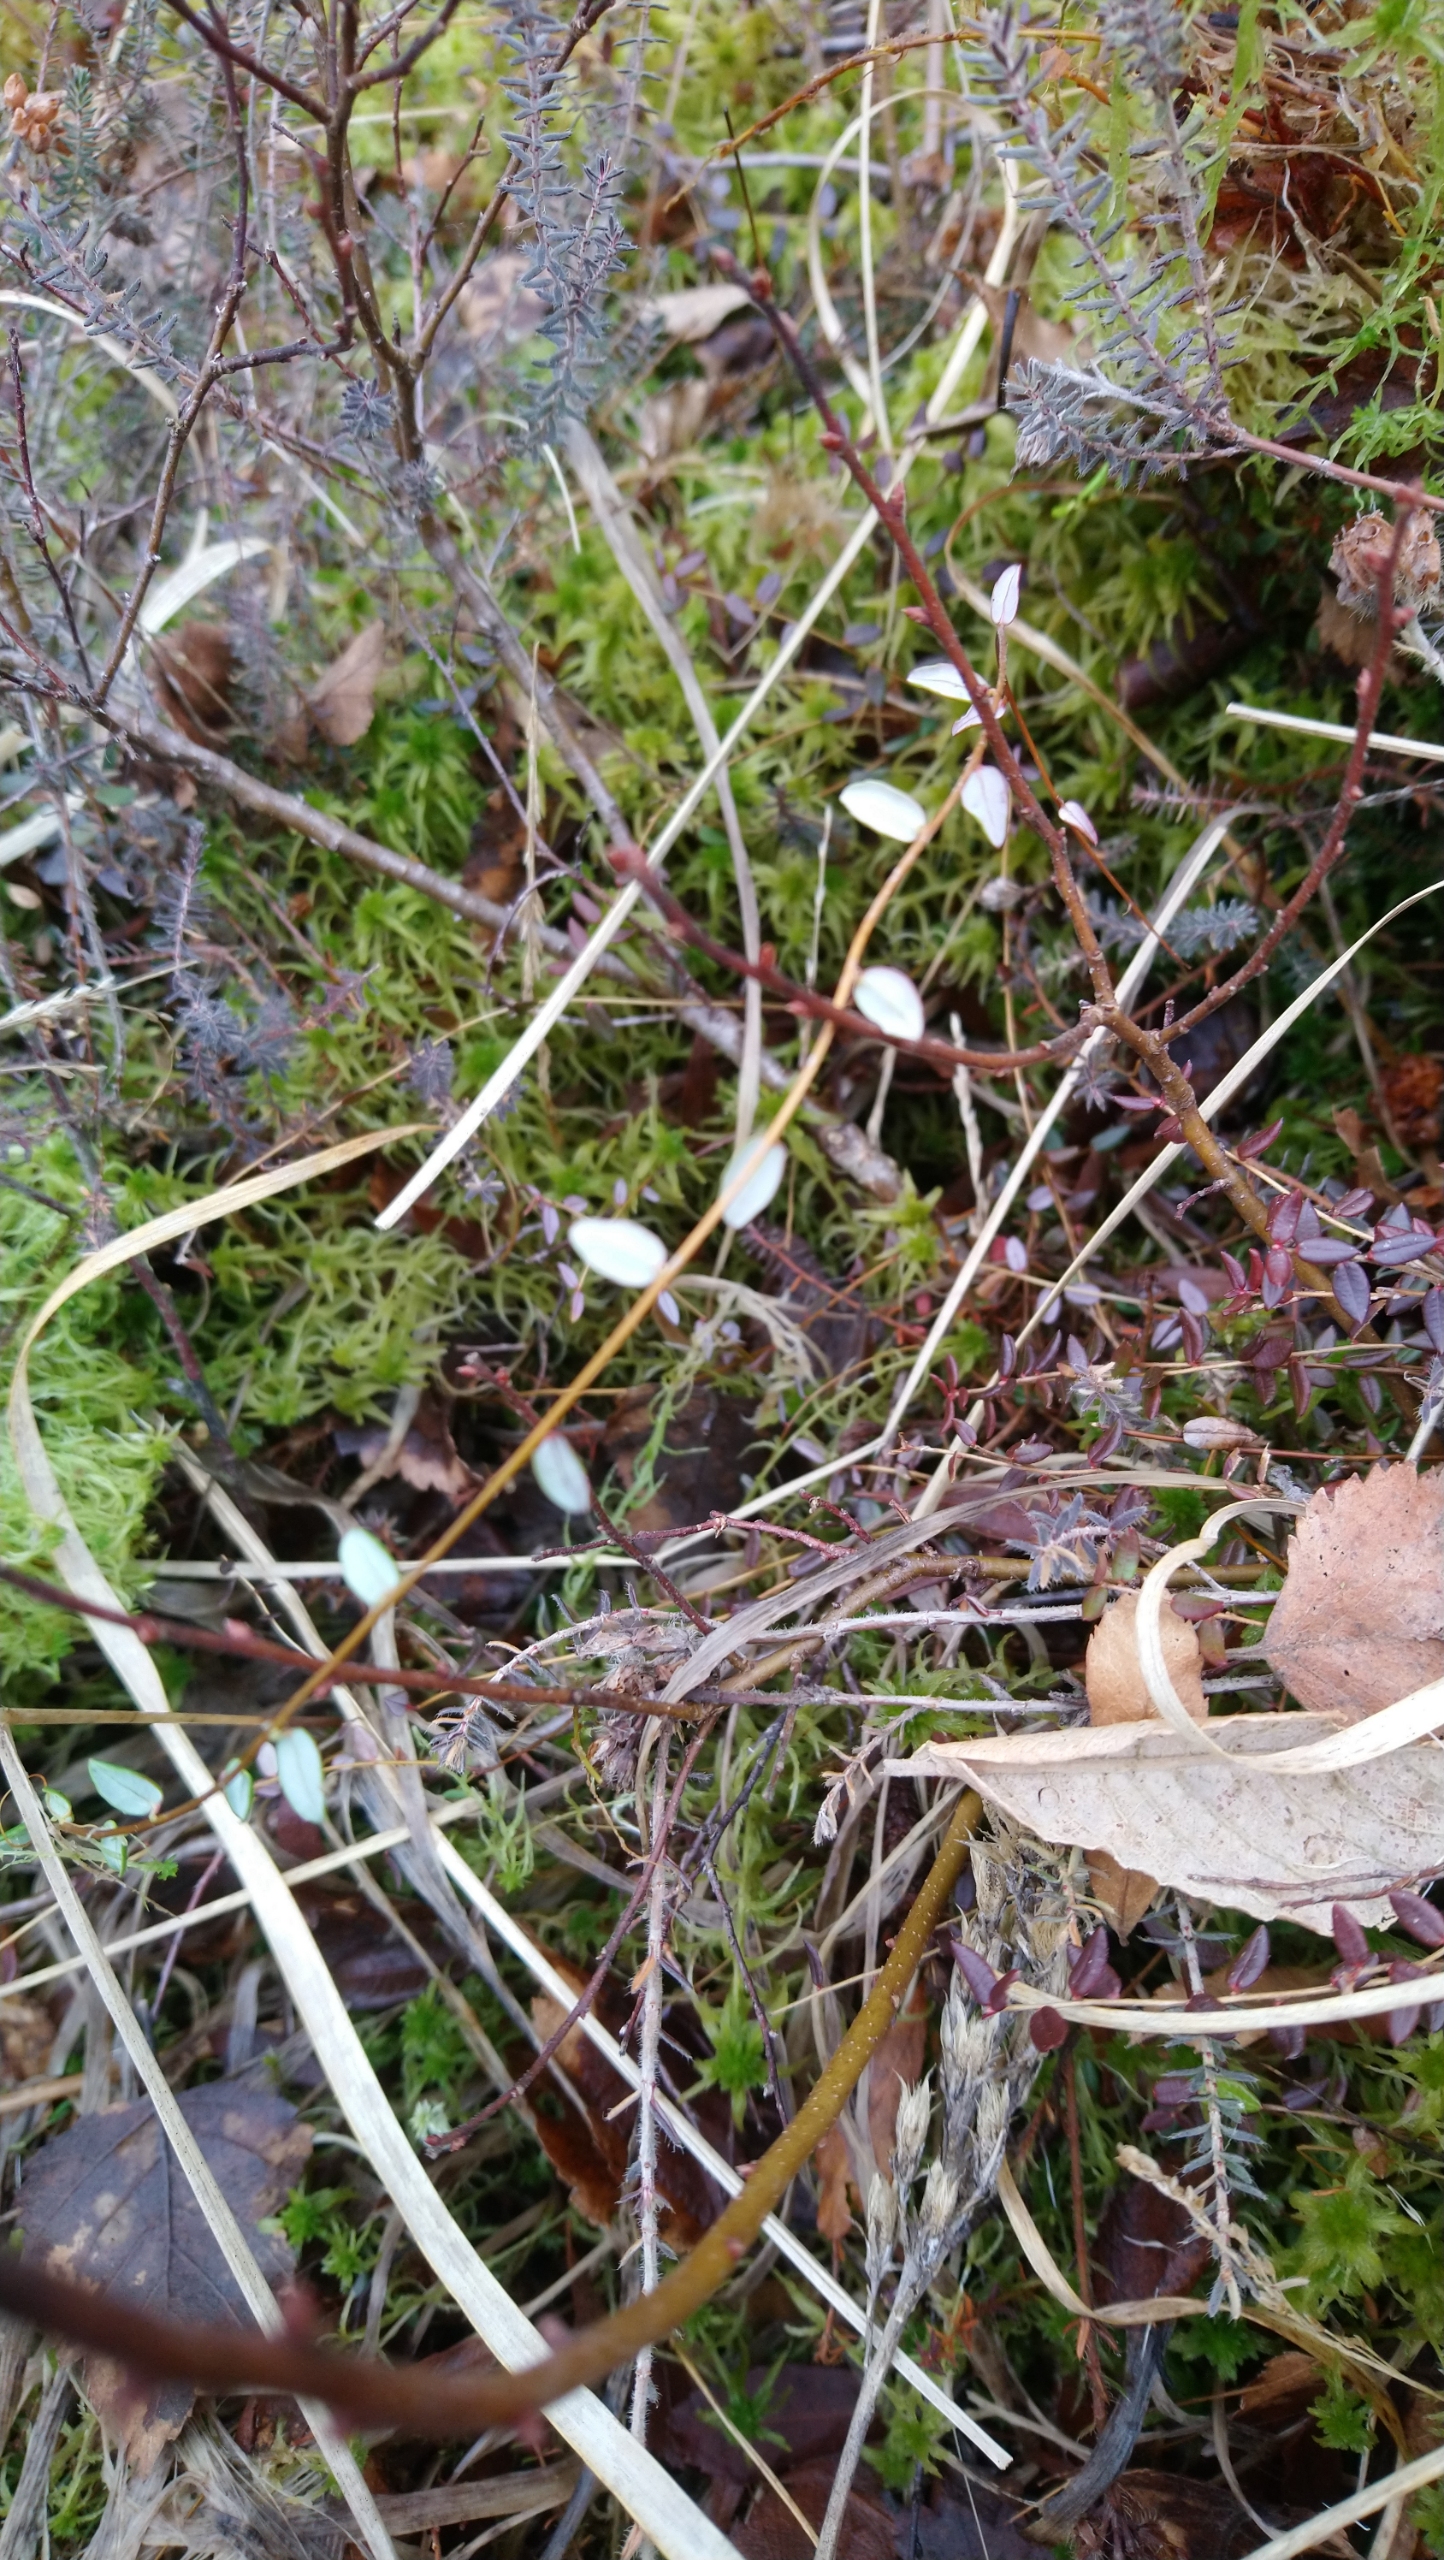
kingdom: Plantae
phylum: Tracheophyta
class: Magnoliopsida
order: Ericales
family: Ericaceae
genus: Vaccinium
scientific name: Vaccinium oxycoccos
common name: Tranebær
